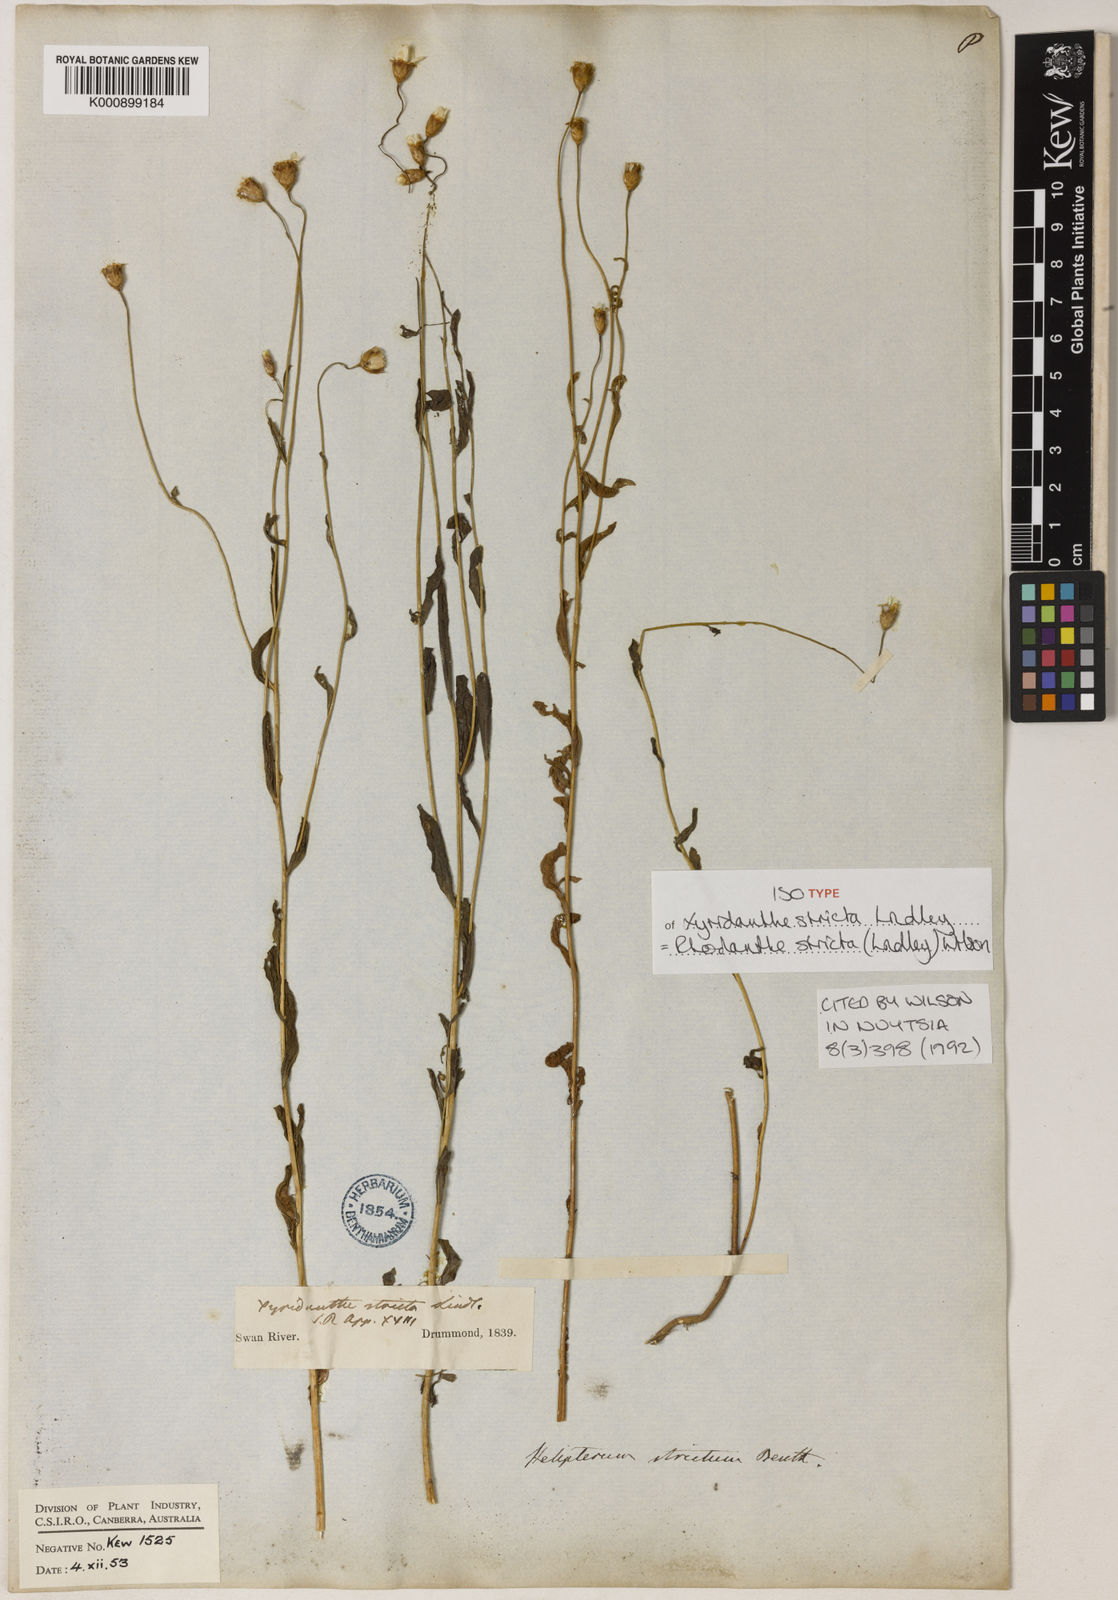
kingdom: Plantae
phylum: Tracheophyta
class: Magnoliopsida
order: Asterales
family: Asteraceae
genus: Rhodanthe
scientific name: Rhodanthe stricta
